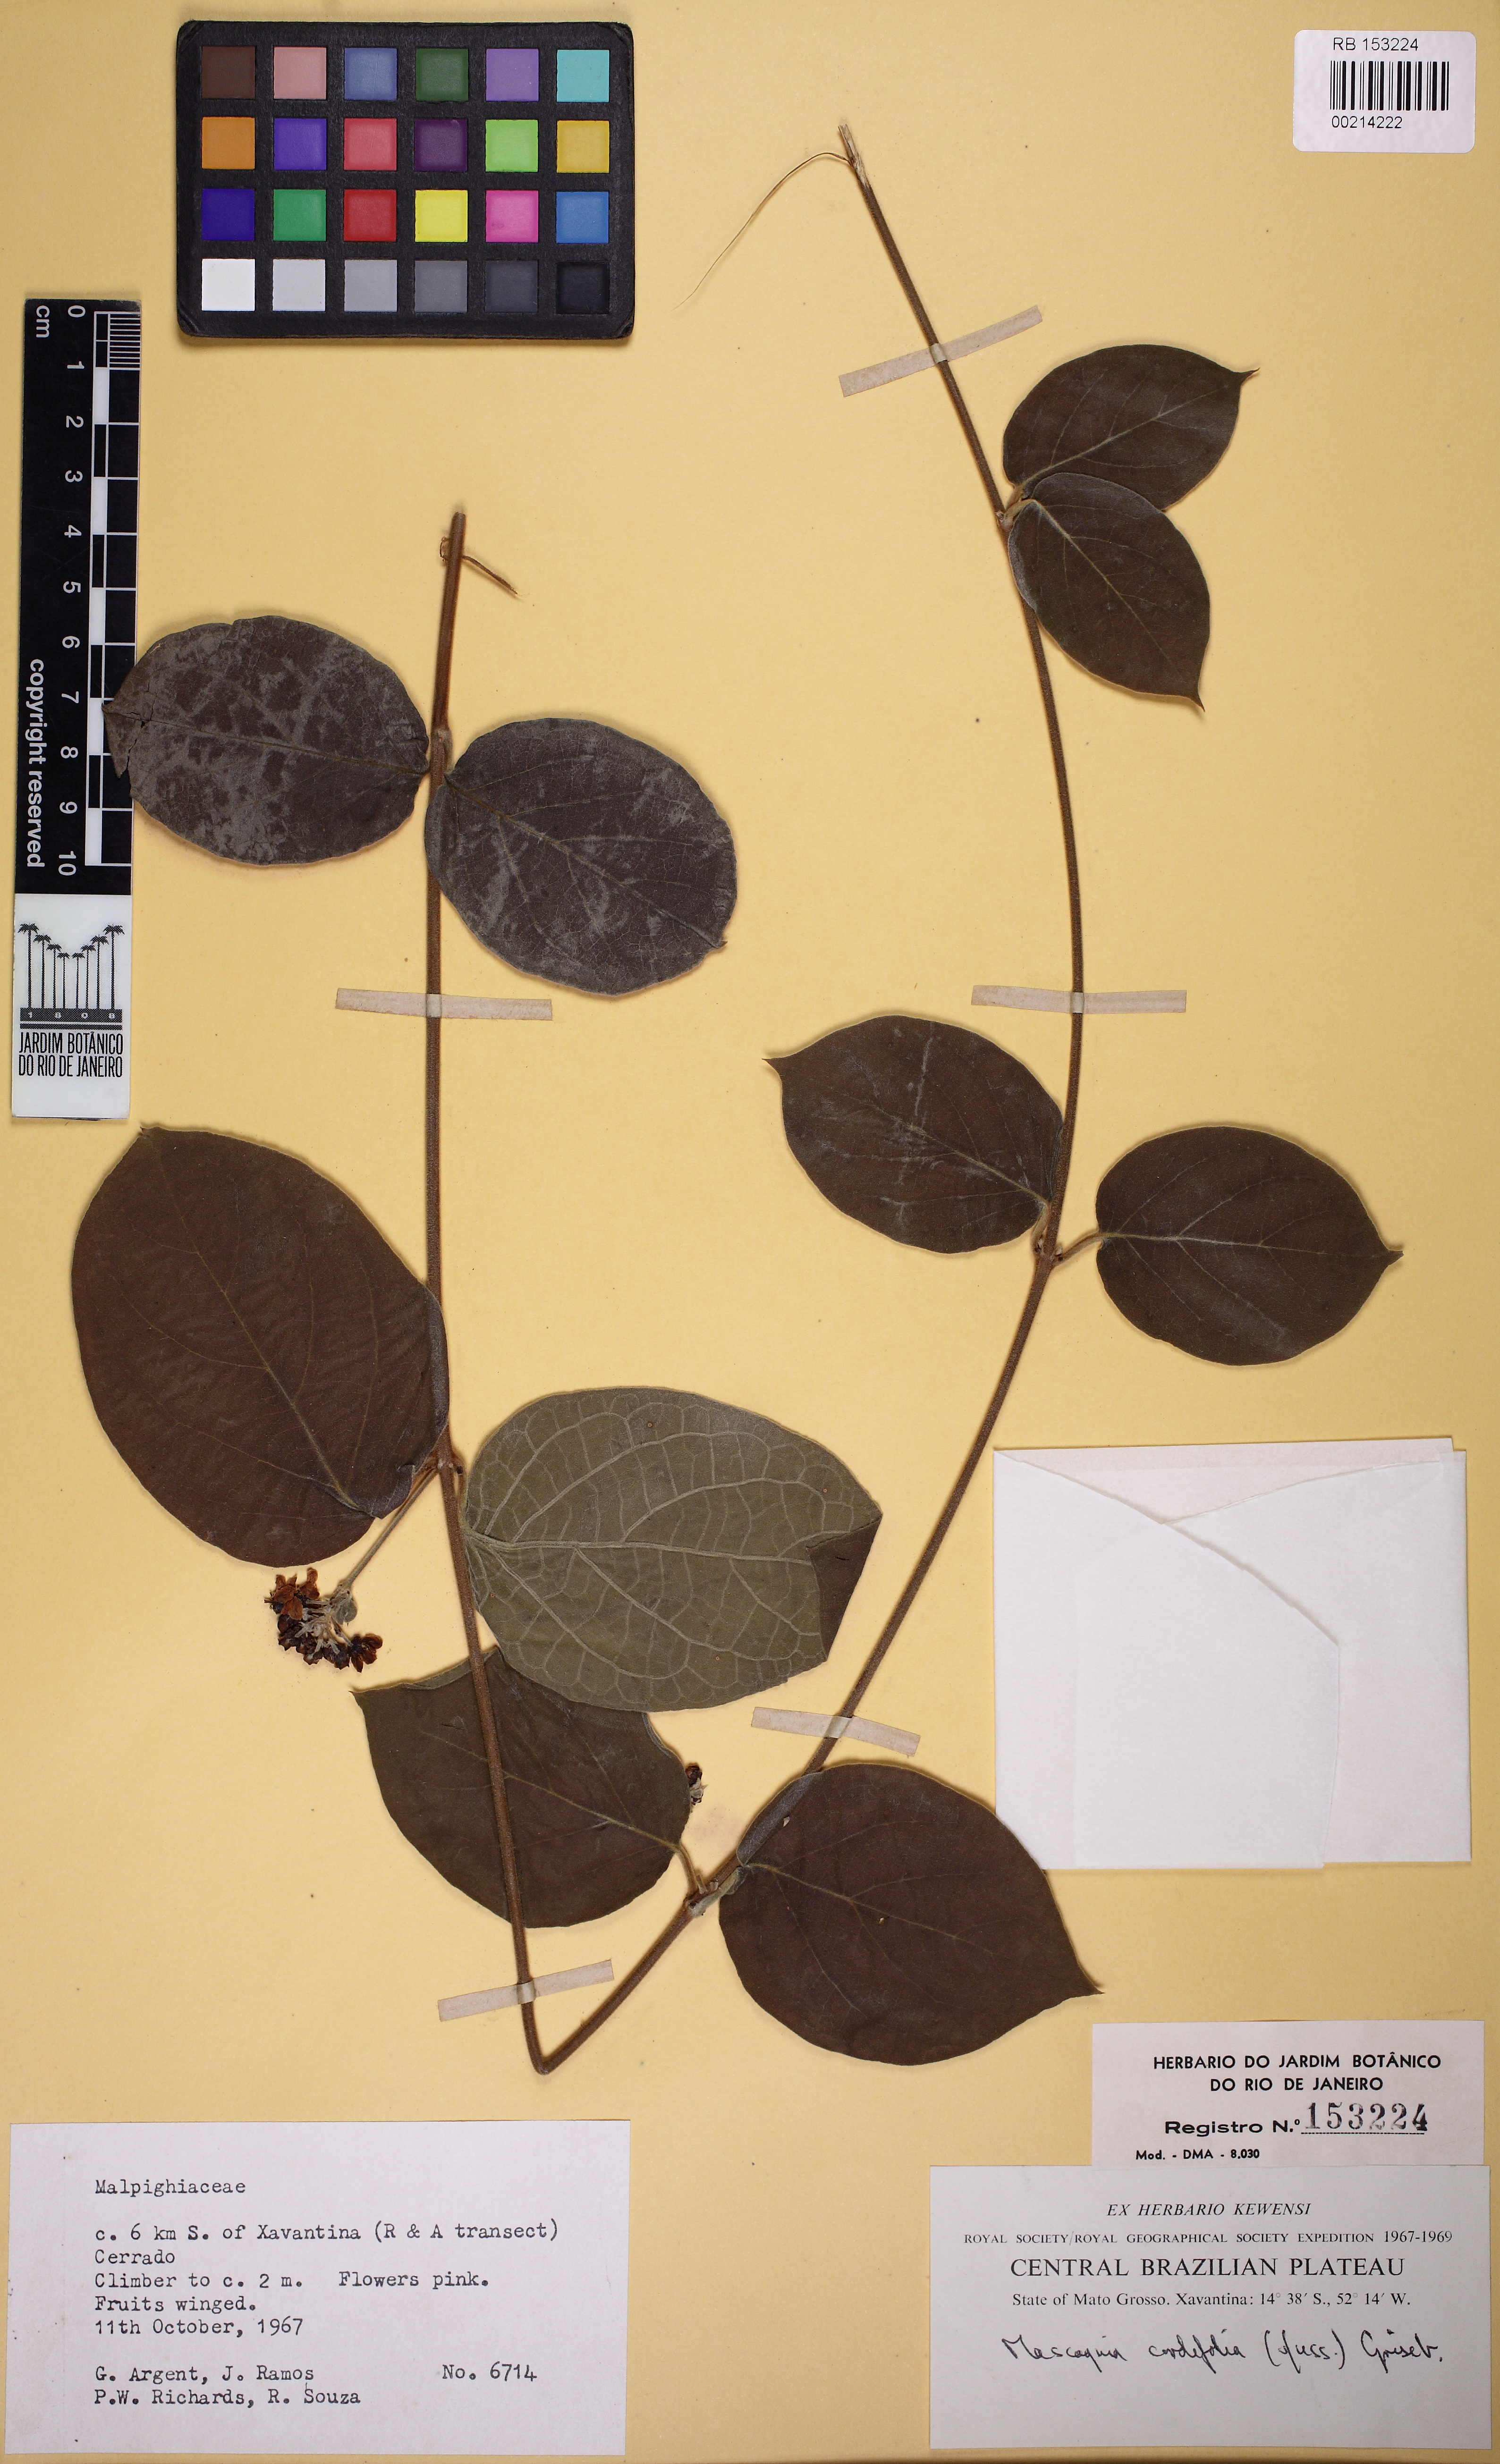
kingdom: Plantae
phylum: Tracheophyta
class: Magnoliopsida
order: Malpighiales
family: Malpighiaceae
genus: Mascagnia
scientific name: Mascagnia cordifolia
